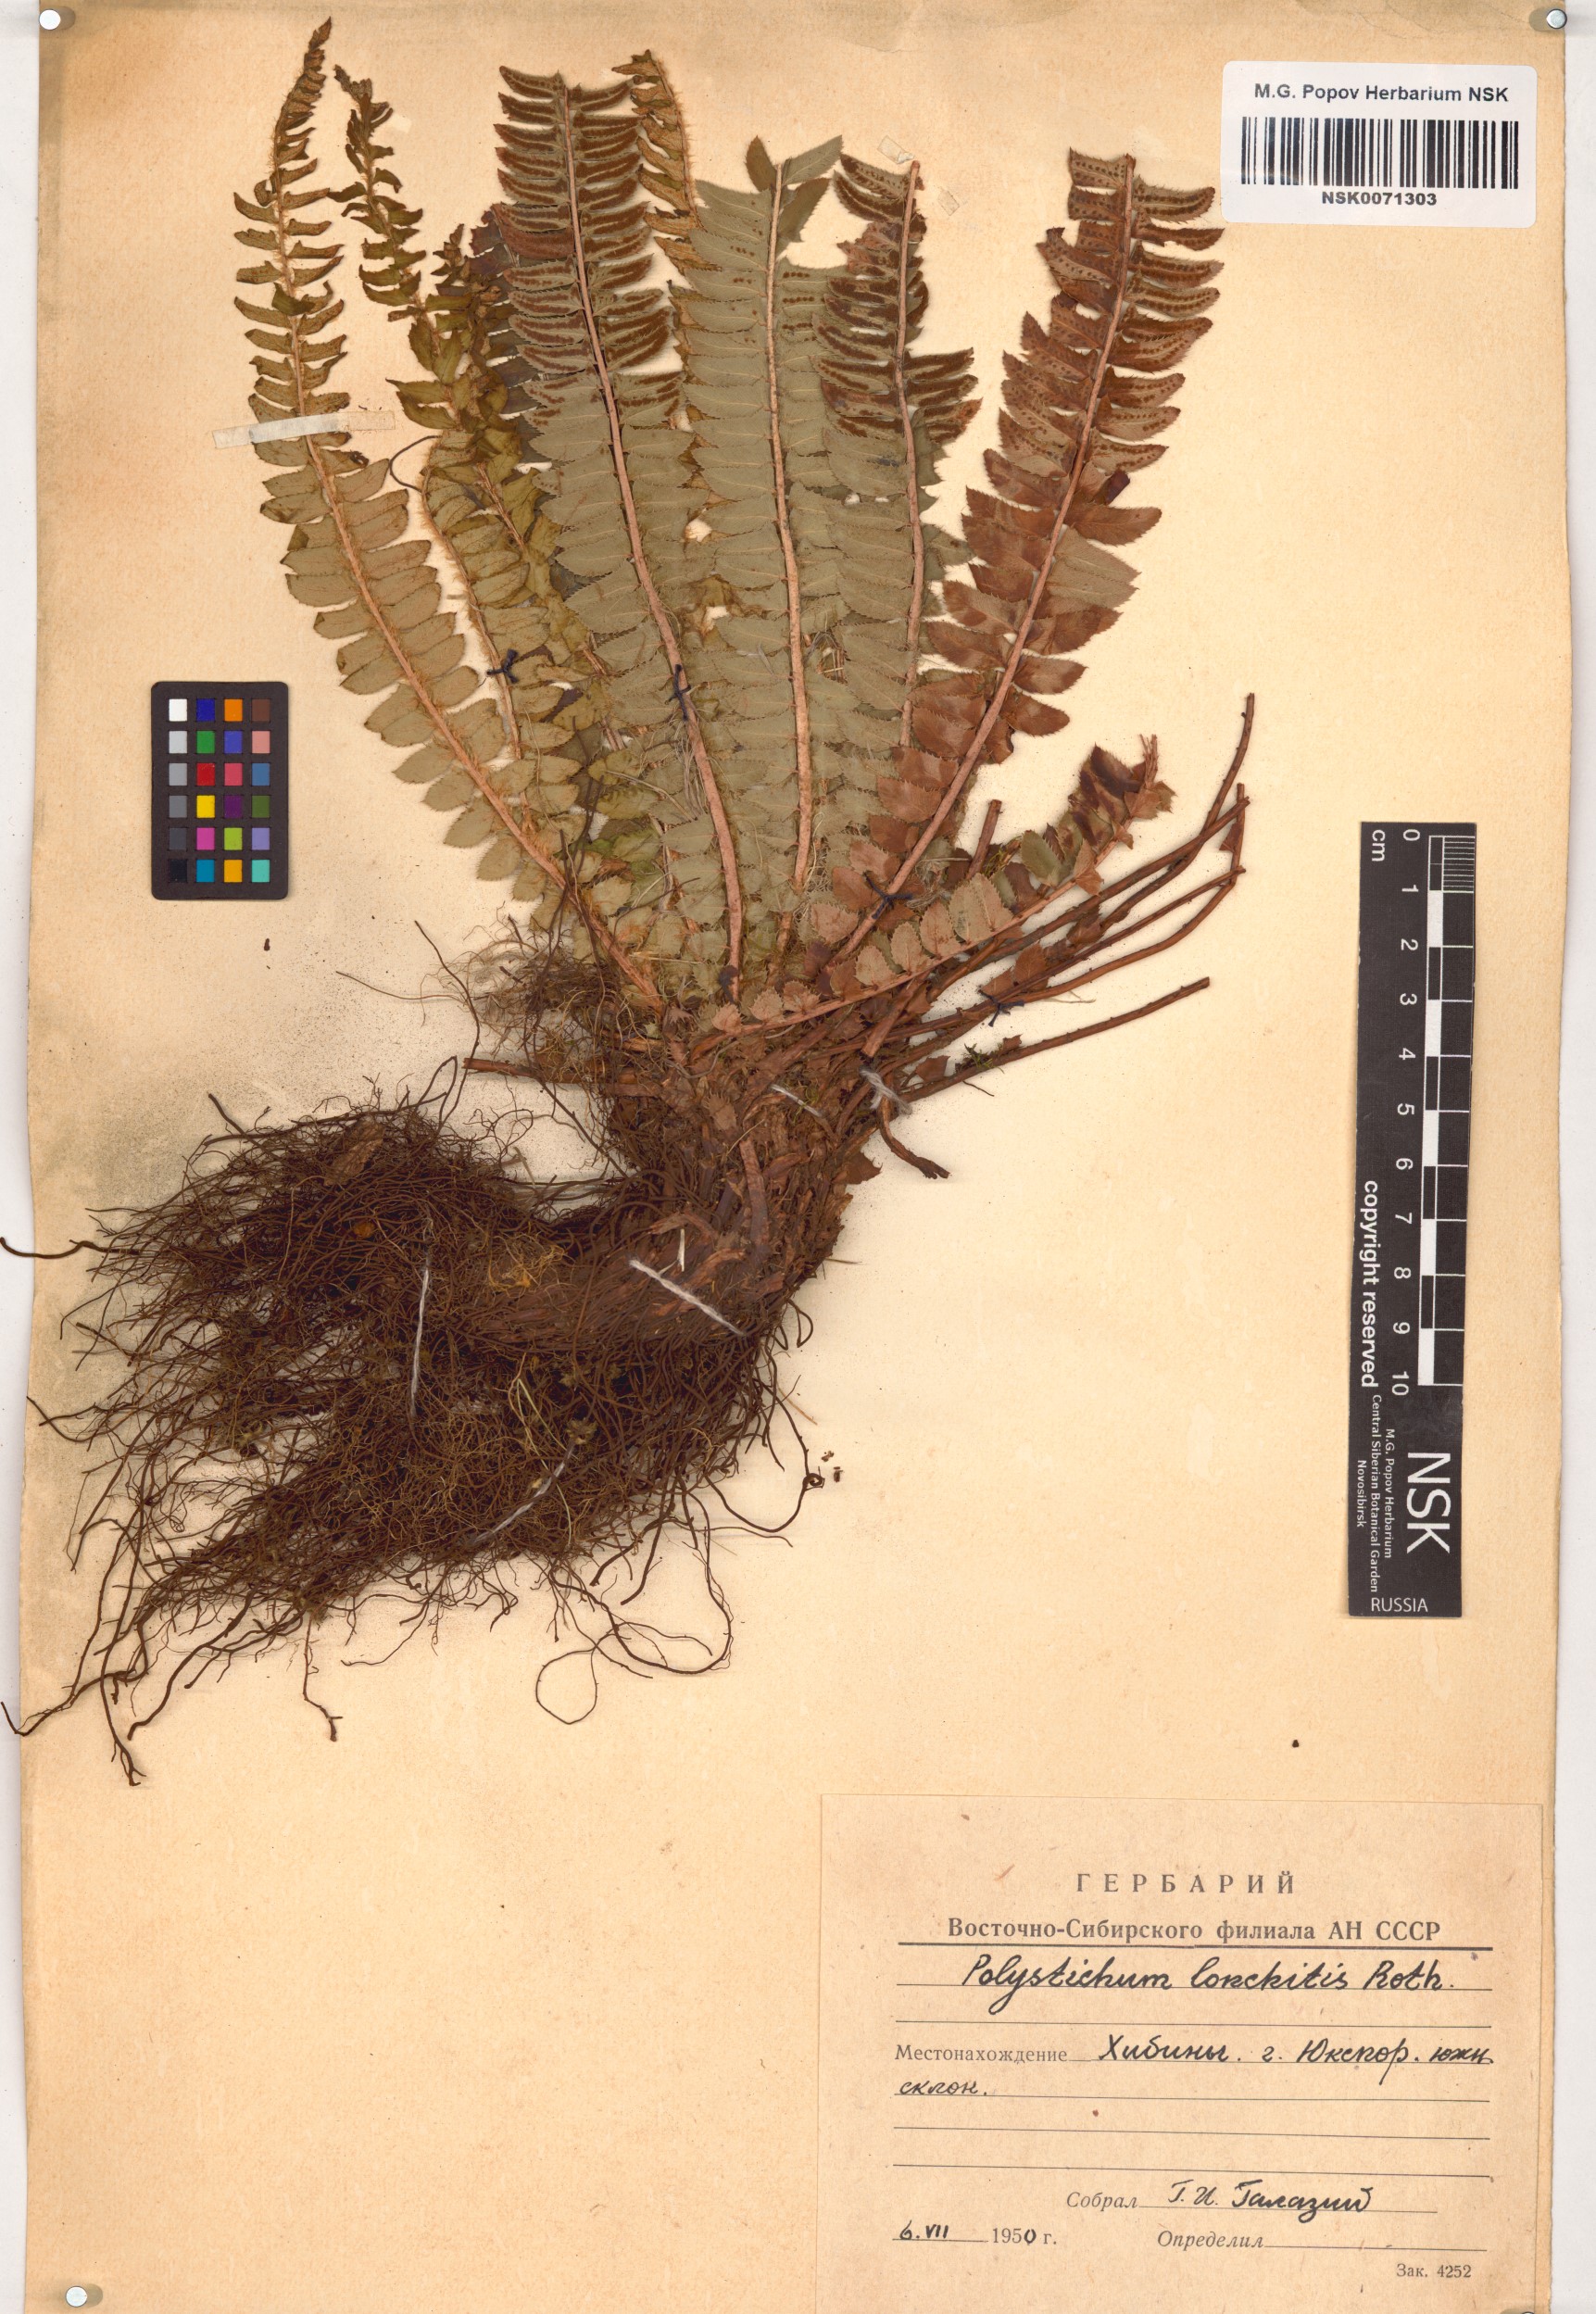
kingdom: Plantae
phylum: Tracheophyta
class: Polypodiopsida
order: Polypodiales
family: Dryopteridaceae
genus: Polystichum
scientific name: Polystichum lonchitis
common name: Holly fern
